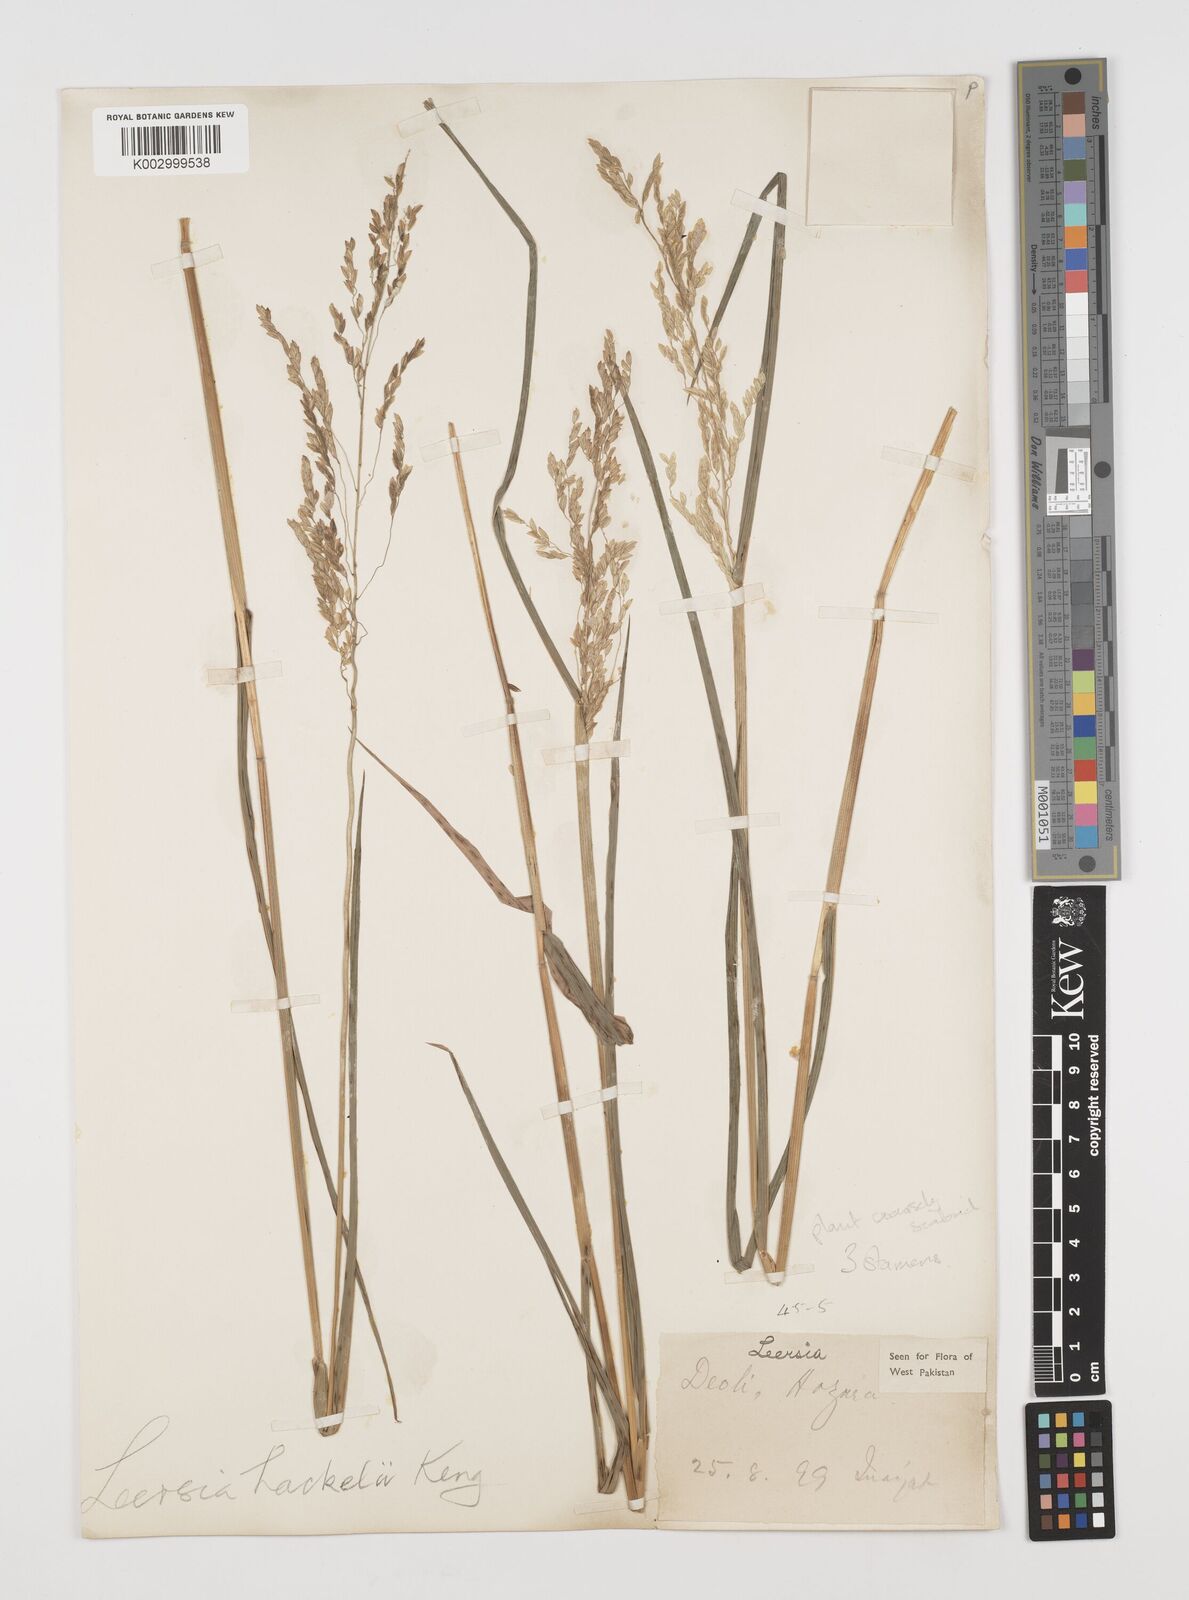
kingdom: Plantae
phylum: Tracheophyta
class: Liliopsida
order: Poales
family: Poaceae
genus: Leersia
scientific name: Leersia oryzoides
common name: Cut-grass
